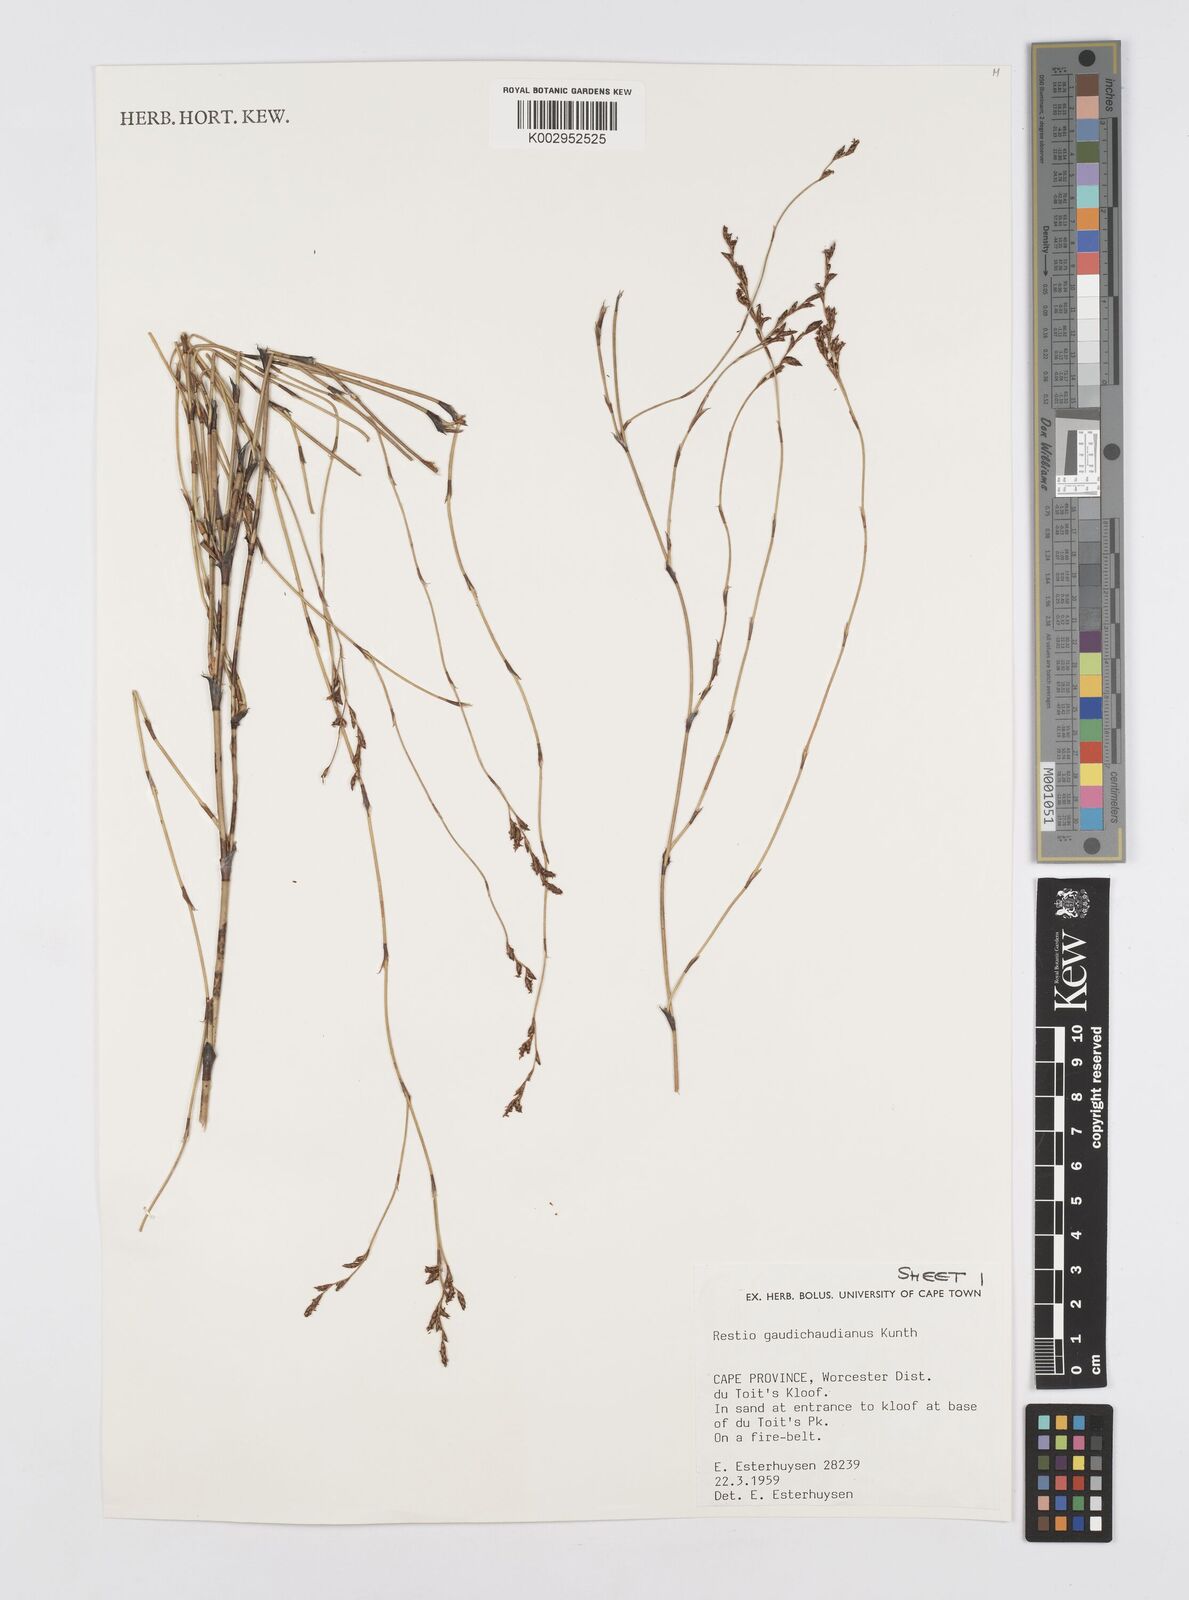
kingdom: Plantae
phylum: Tracheophyta
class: Liliopsida
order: Poales
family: Restionaceae
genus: Restio
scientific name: Restio gaudichaudianus
